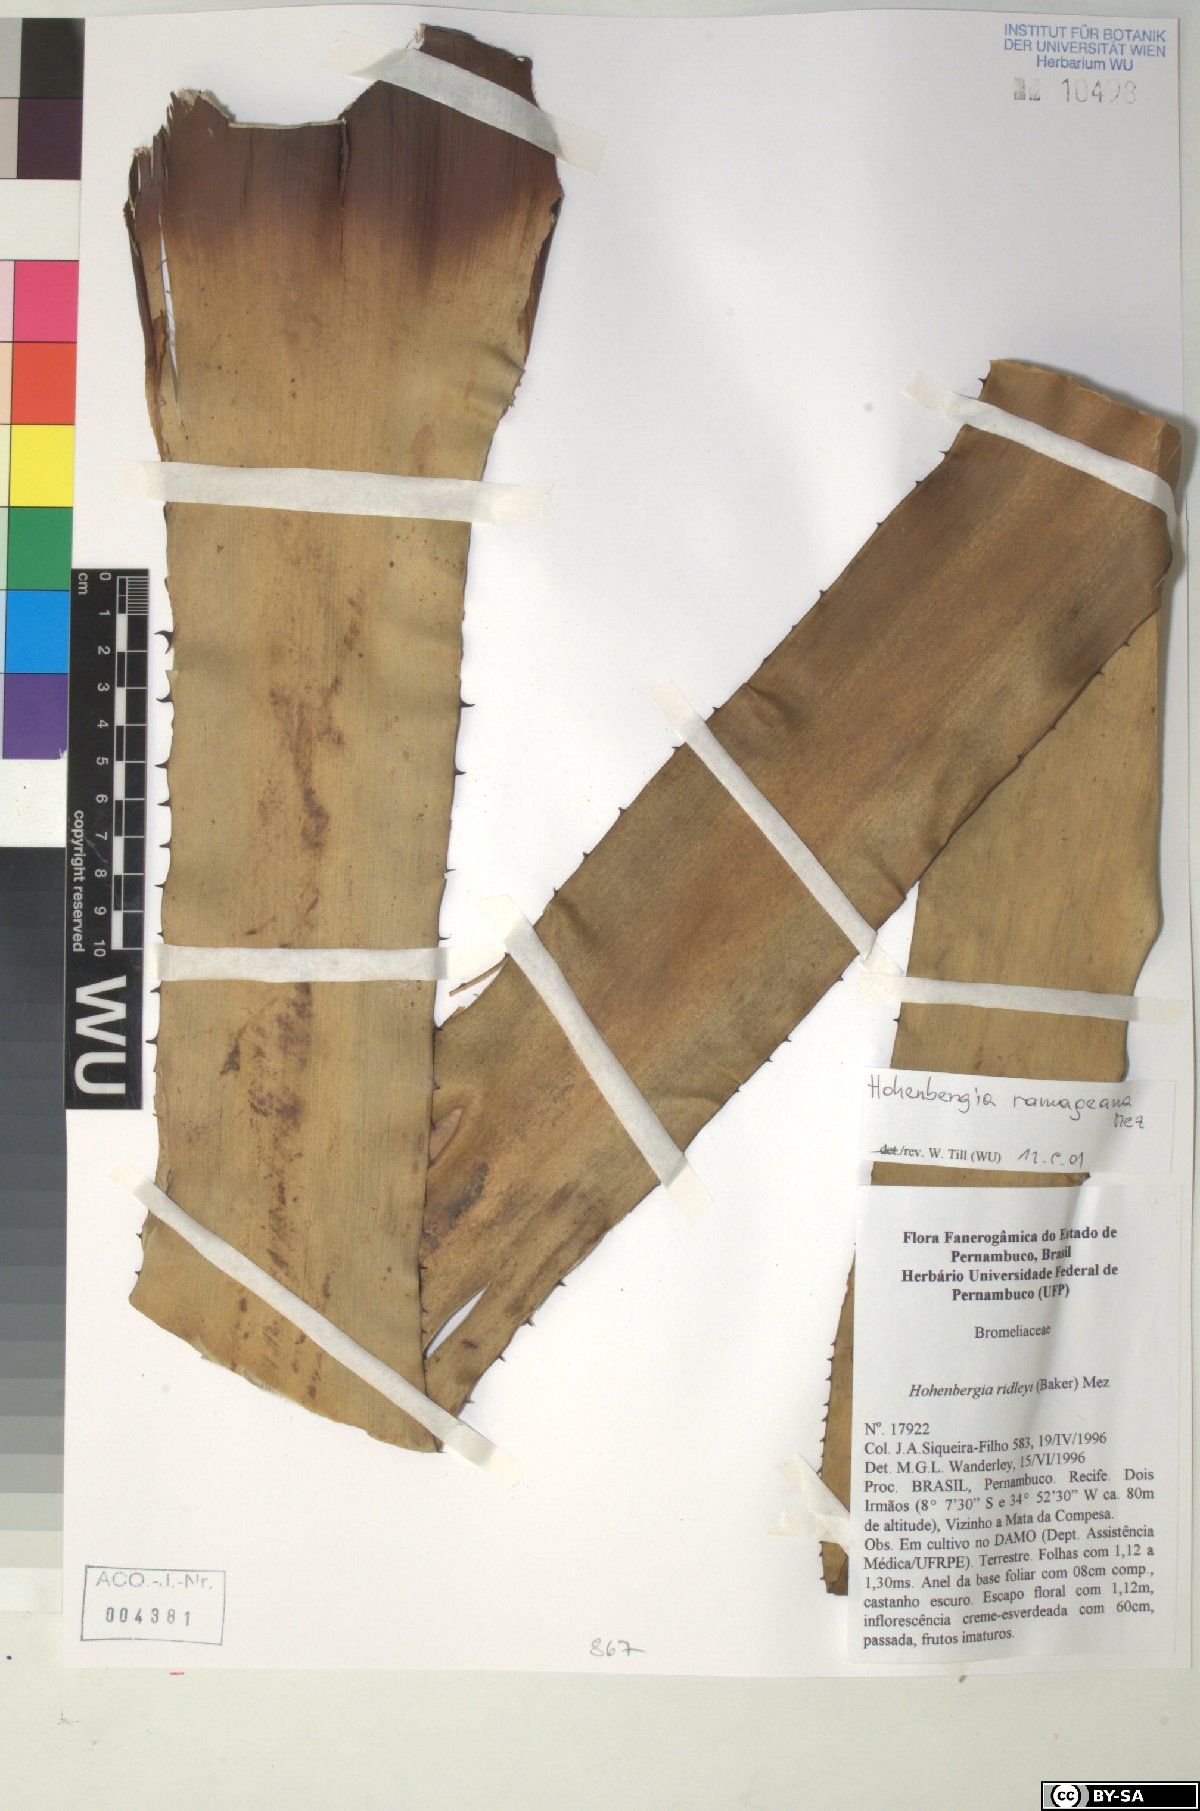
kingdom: Plantae
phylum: Tracheophyta
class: Liliopsida
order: Poales
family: Bromeliaceae
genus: Hohenbergia
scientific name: Hohenbergia ridleyi
